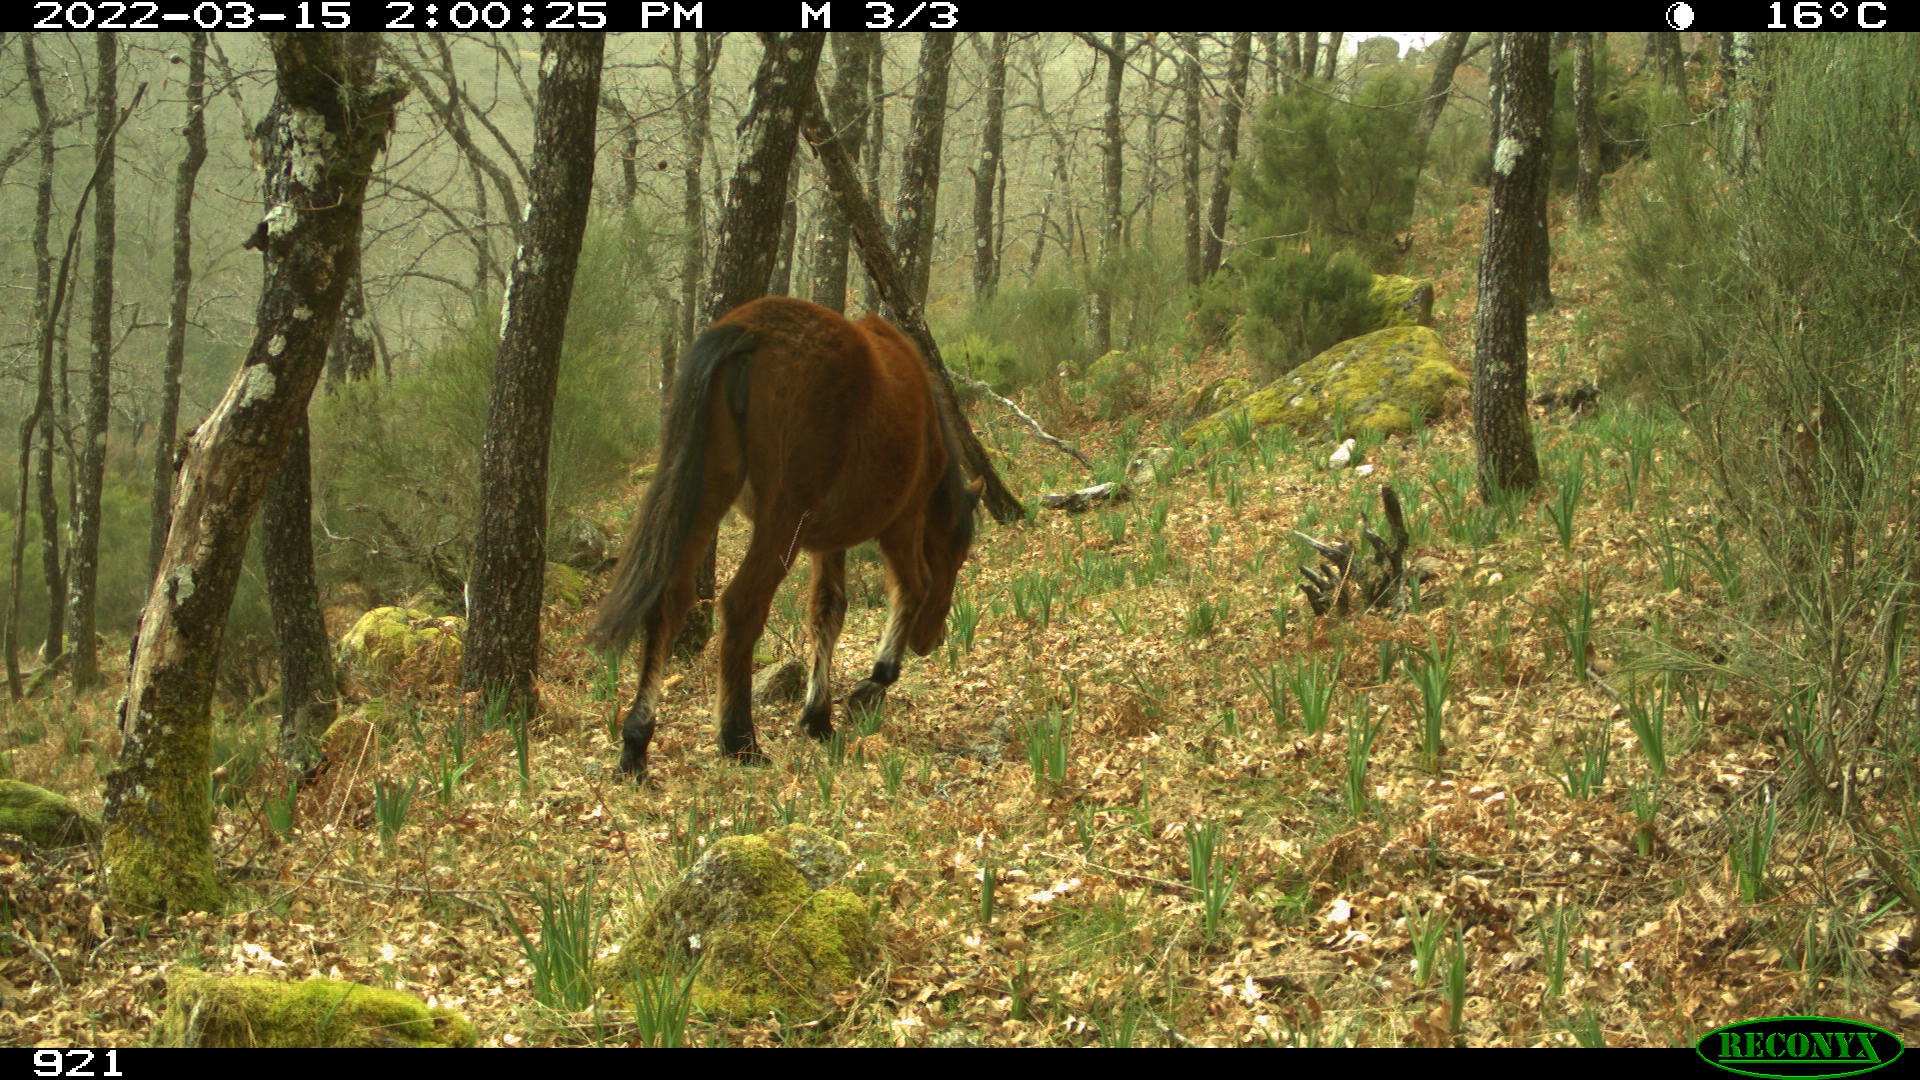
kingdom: Animalia
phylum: Chordata
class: Mammalia
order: Perissodactyla
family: Equidae
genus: Equus
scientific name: Equus caballus
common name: Horse
